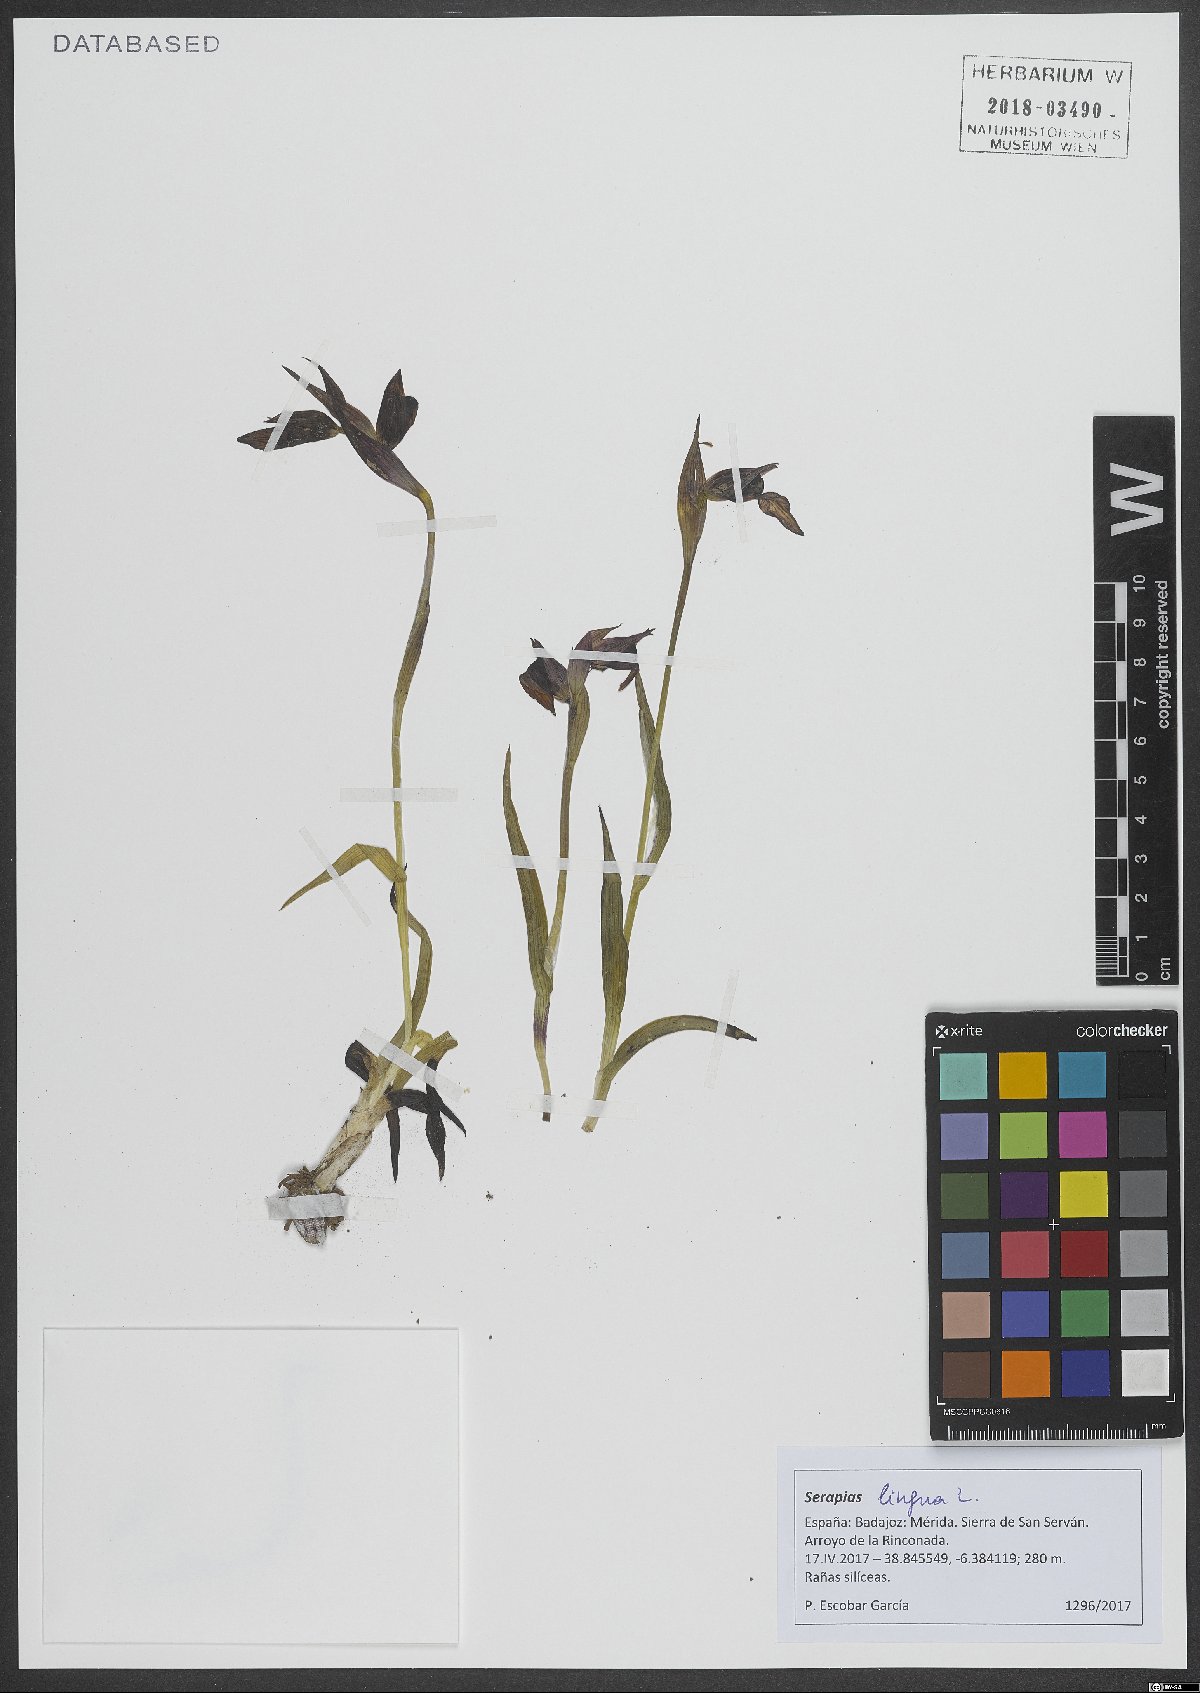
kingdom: Plantae
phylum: Tracheophyta
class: Liliopsida
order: Asparagales
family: Orchidaceae
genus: Serapias
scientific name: Serapias lingua
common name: Tongue-orchid
